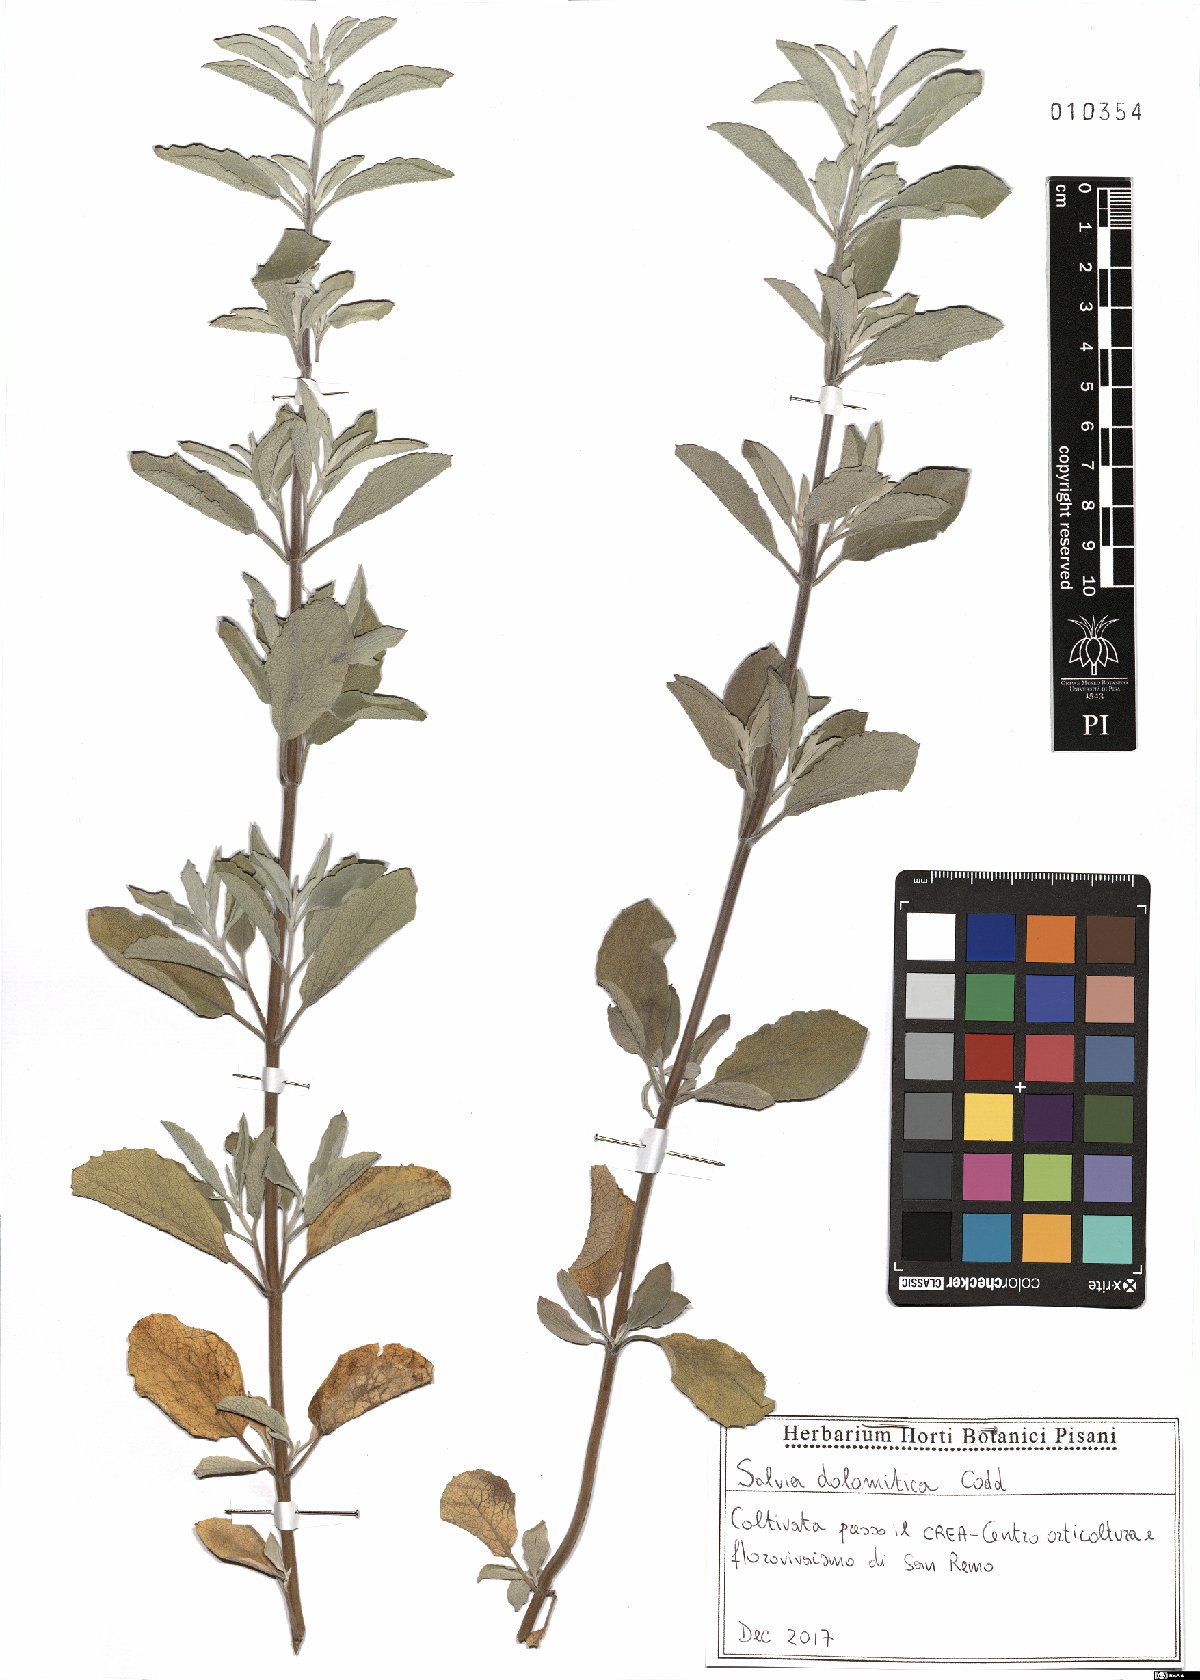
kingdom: Plantae
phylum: Tracheophyta
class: Magnoliopsida
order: Lamiales
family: Lamiaceae
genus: Salvia
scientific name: Salvia dolomitica
